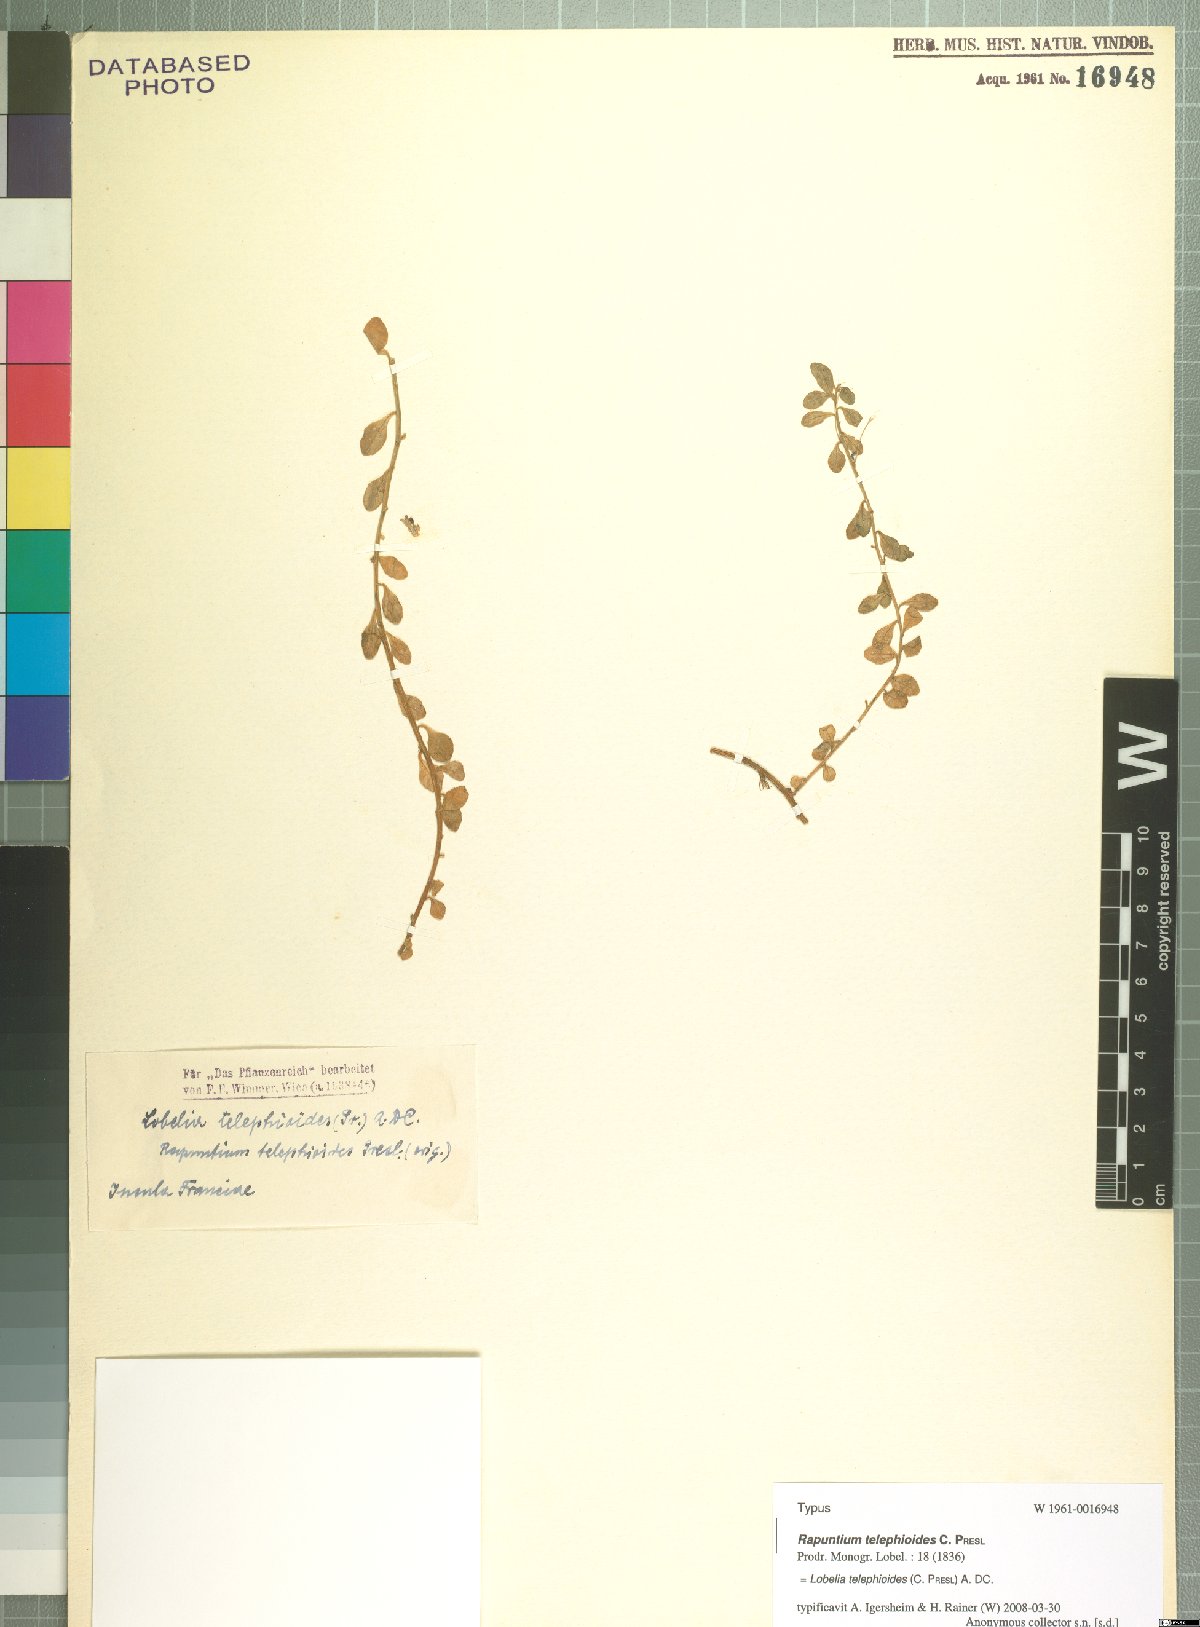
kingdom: Plantae
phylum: Tracheophyta
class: Magnoliopsida
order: Asterales
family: Campanulaceae
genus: Lobelia
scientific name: Lobelia telephioides
